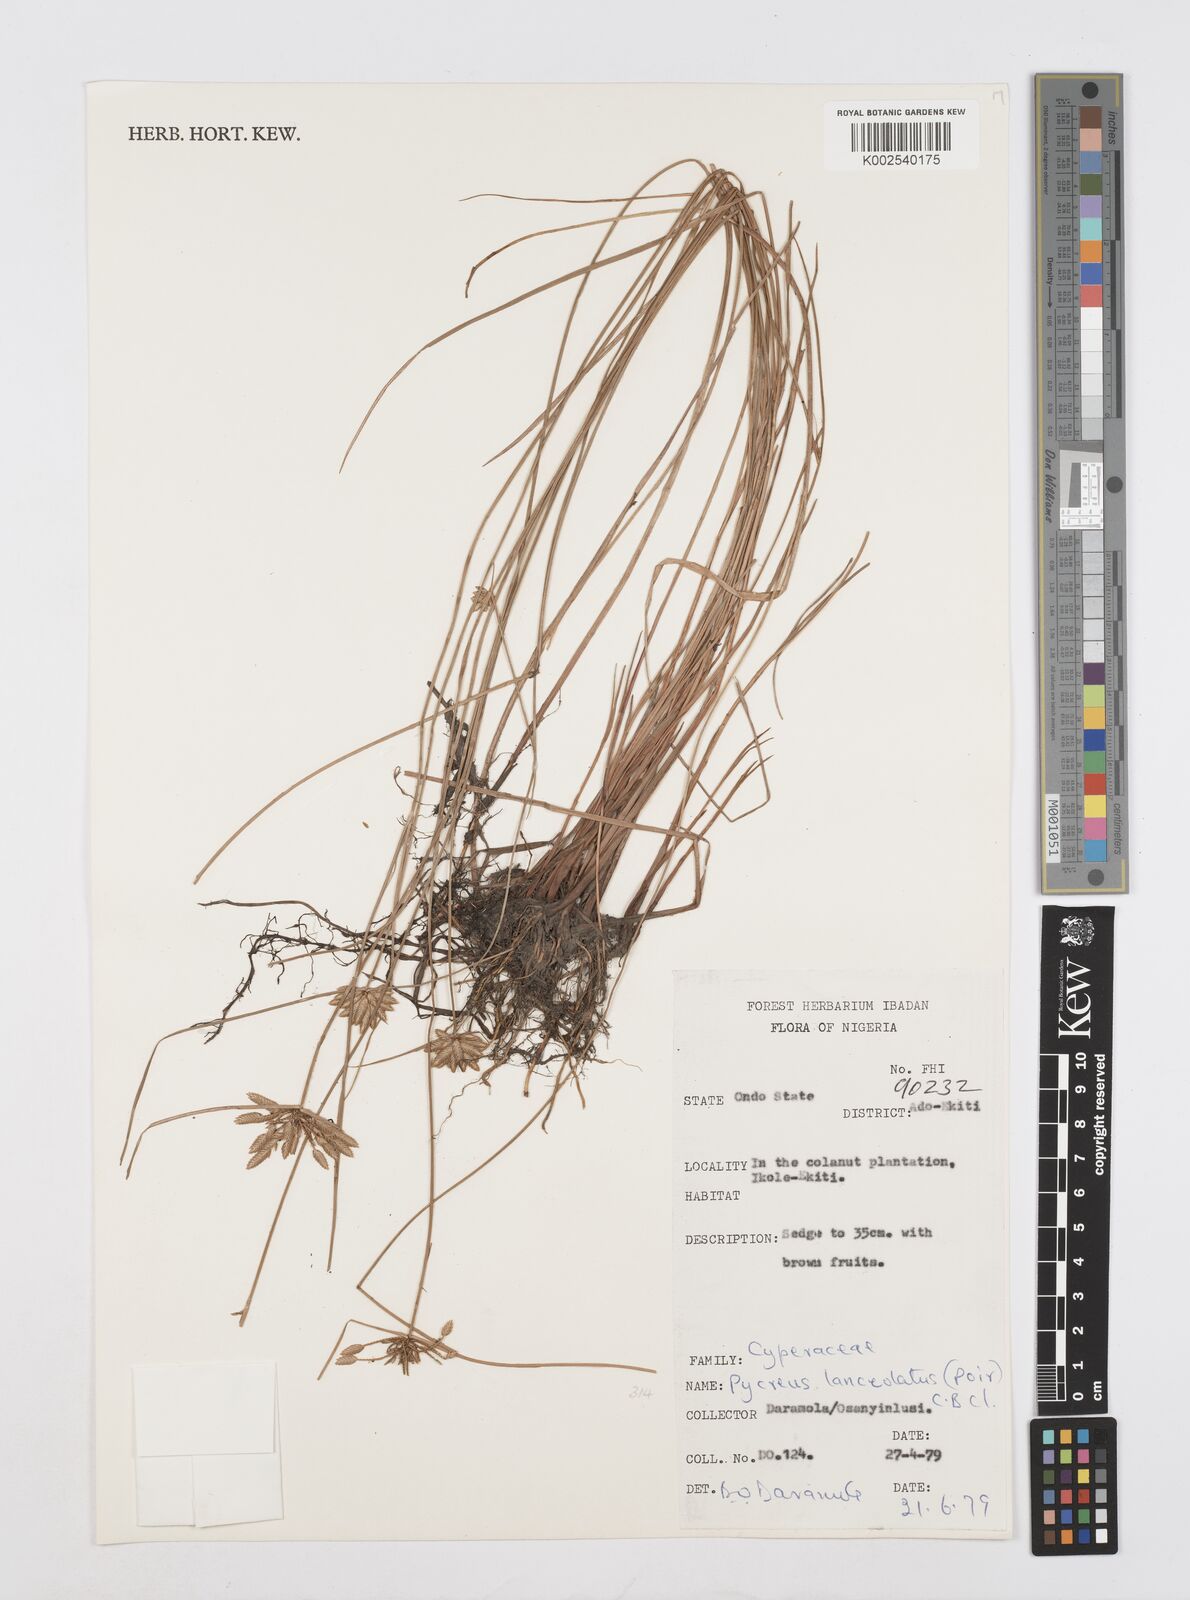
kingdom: Plantae
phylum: Tracheophyta
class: Liliopsida
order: Poales
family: Cyperaceae
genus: Cyperus
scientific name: Cyperus
